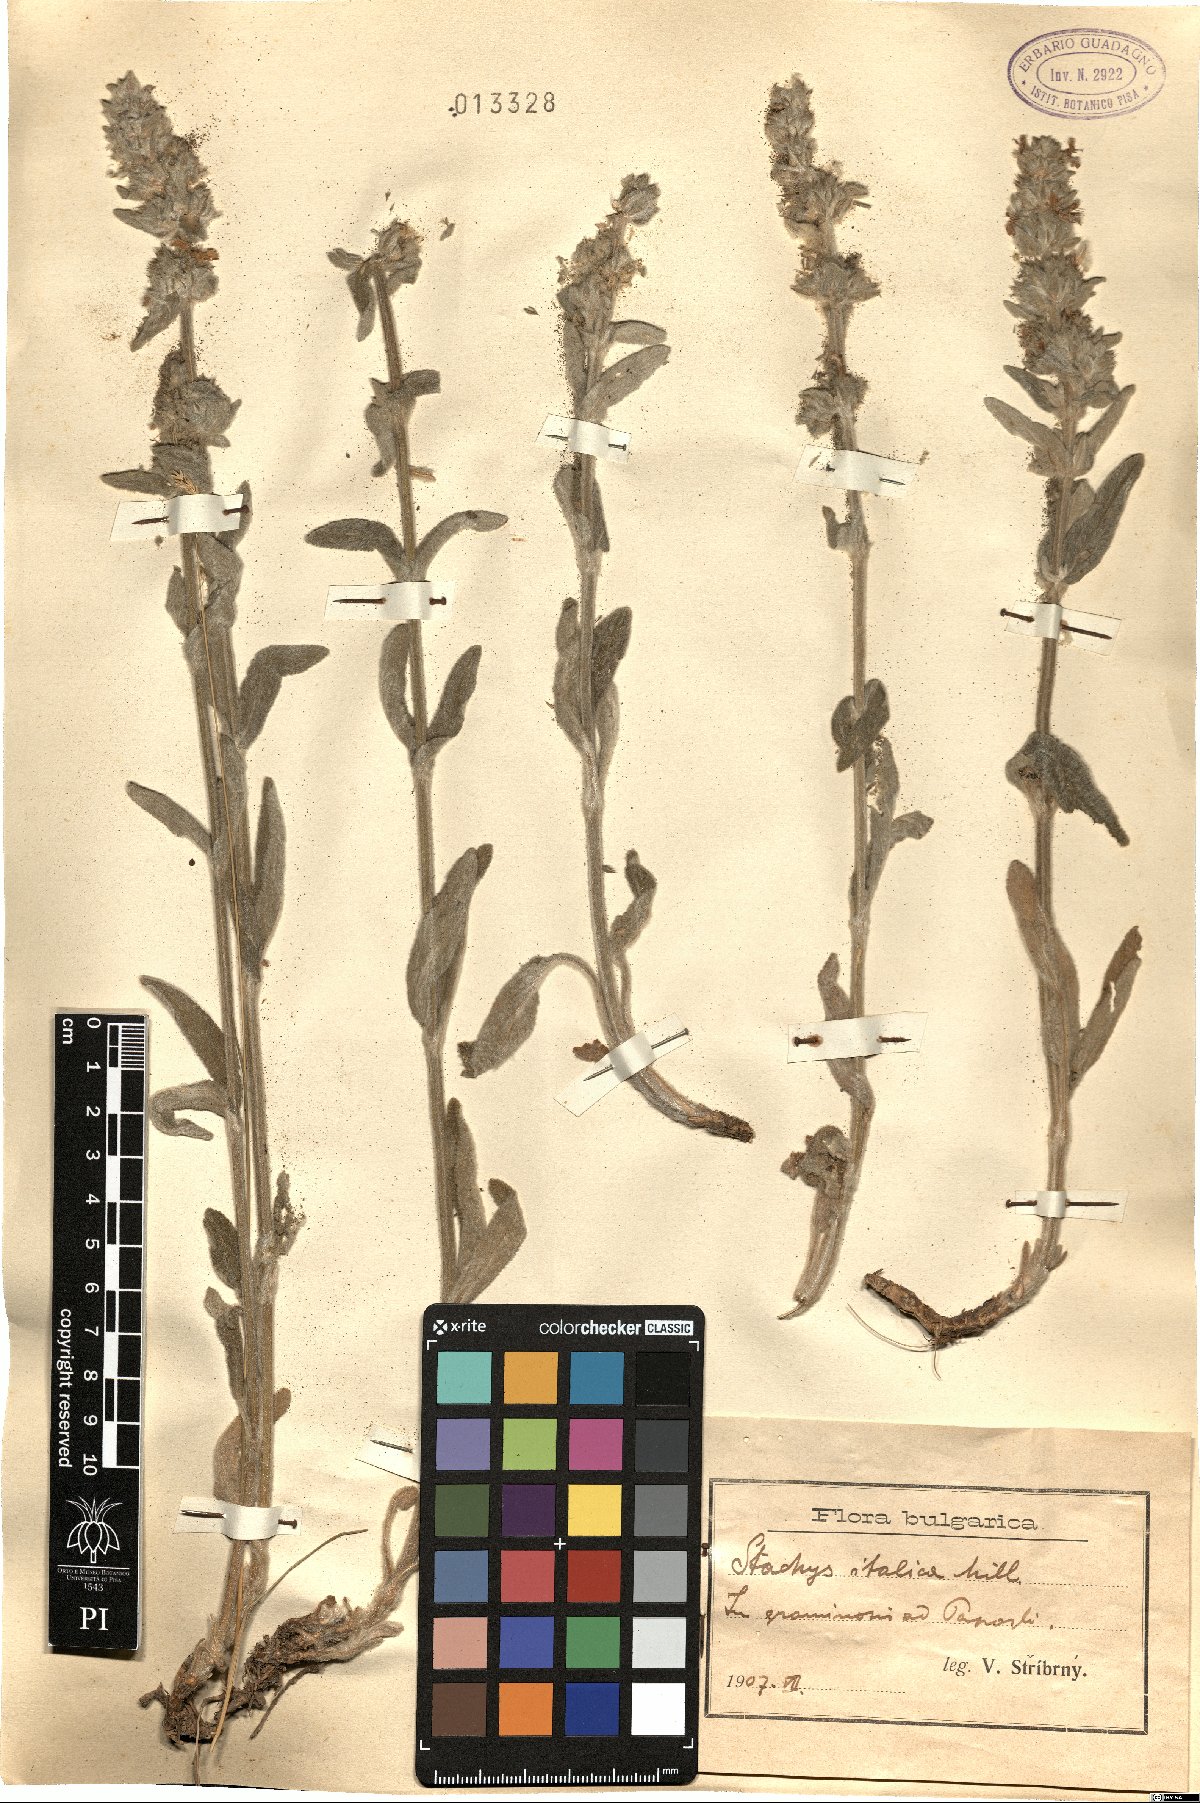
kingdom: Plantae
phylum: Tracheophyta
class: Magnoliopsida
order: Lamiales
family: Lamiaceae
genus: Sideritis
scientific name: Sideritis italica
